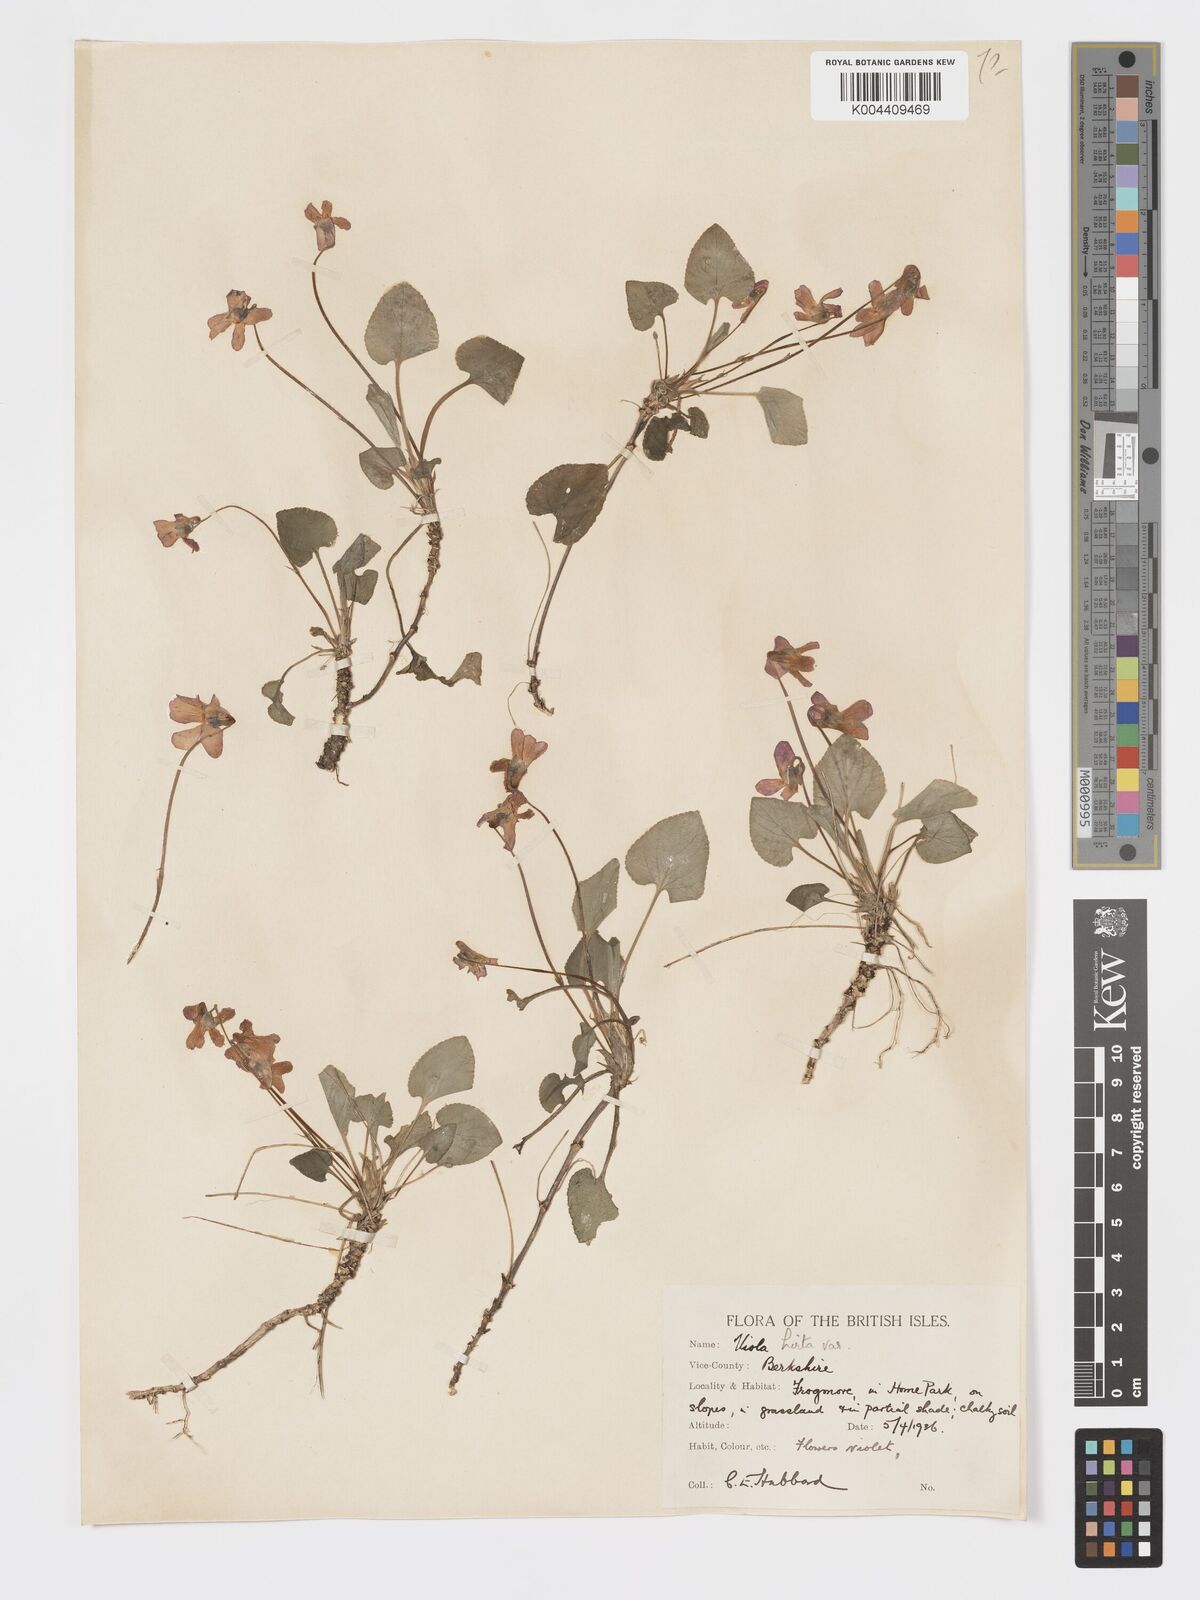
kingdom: Plantae
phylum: Tracheophyta
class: Magnoliopsida
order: Malpighiales
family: Violaceae
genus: Viola
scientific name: Viola
